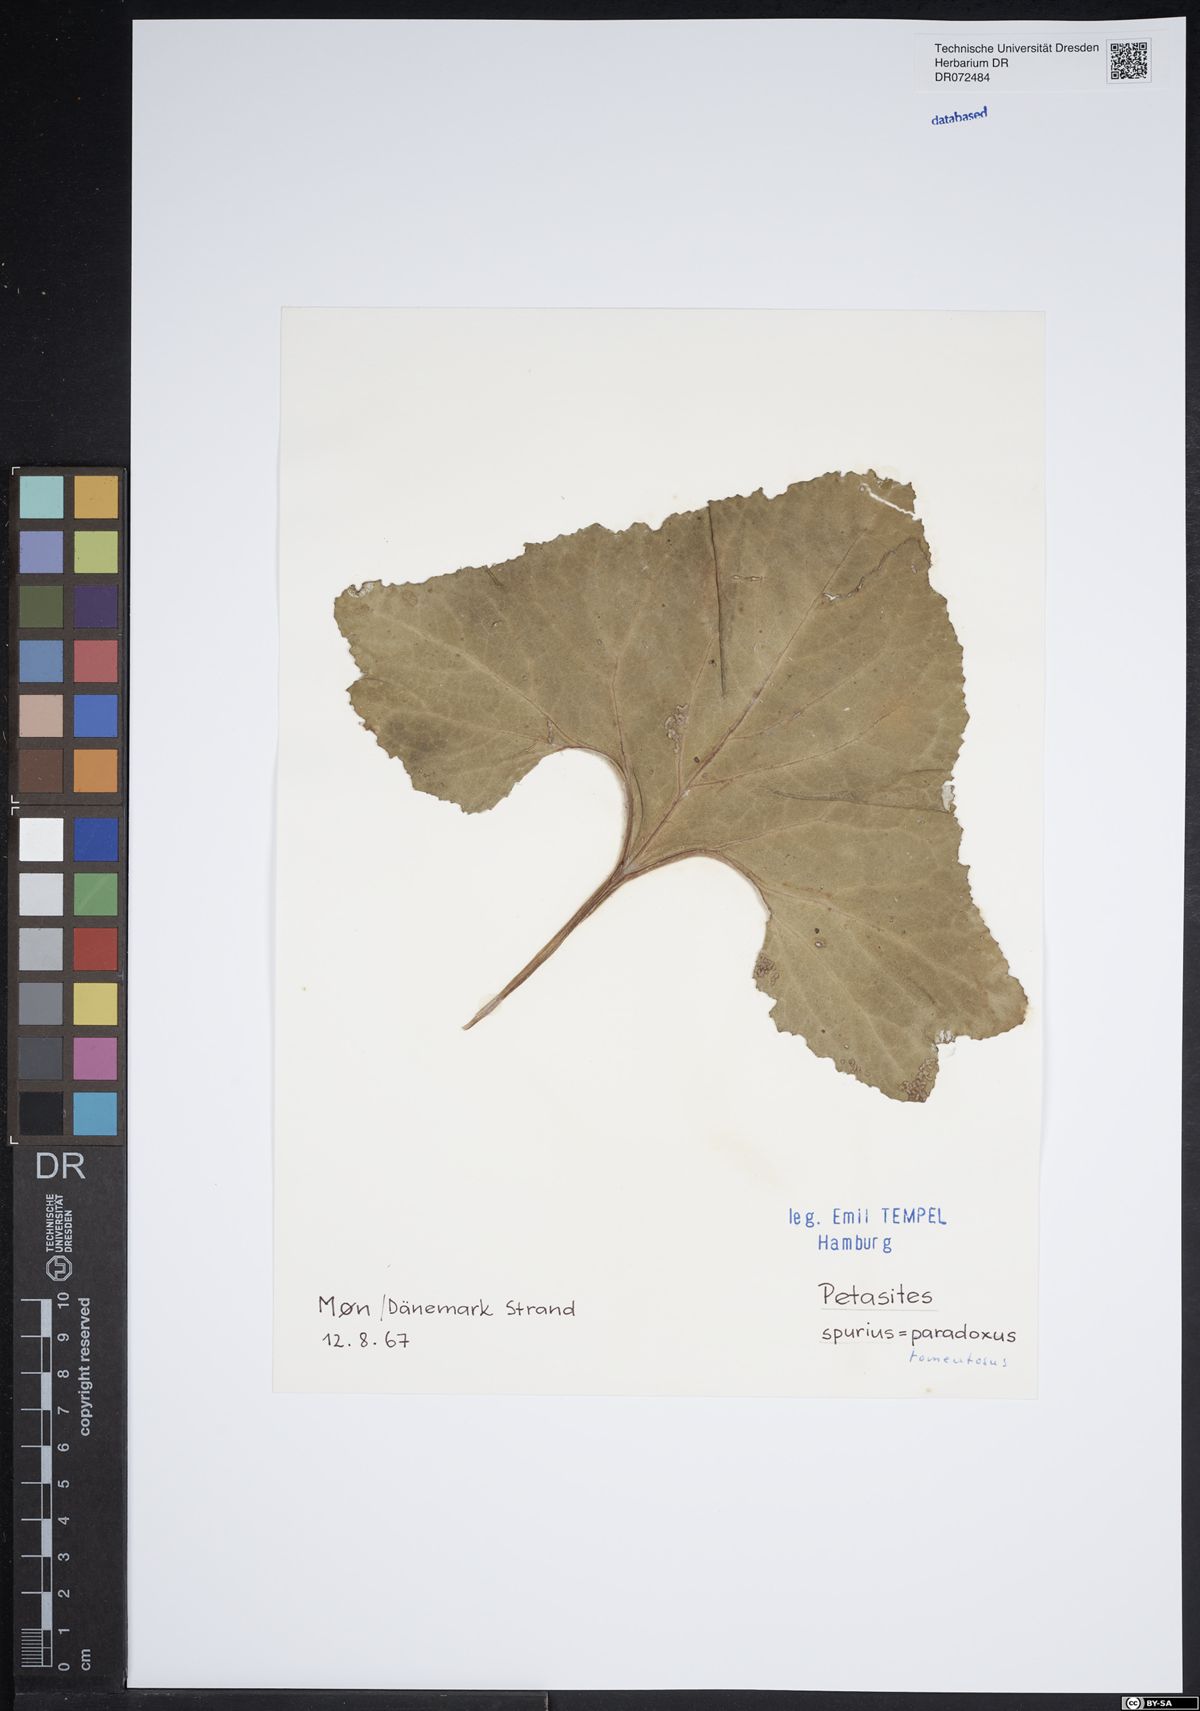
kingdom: Plantae
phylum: Tracheophyta
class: Magnoliopsida
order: Asterales
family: Asteraceae
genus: Petasites
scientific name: Petasites spurius
